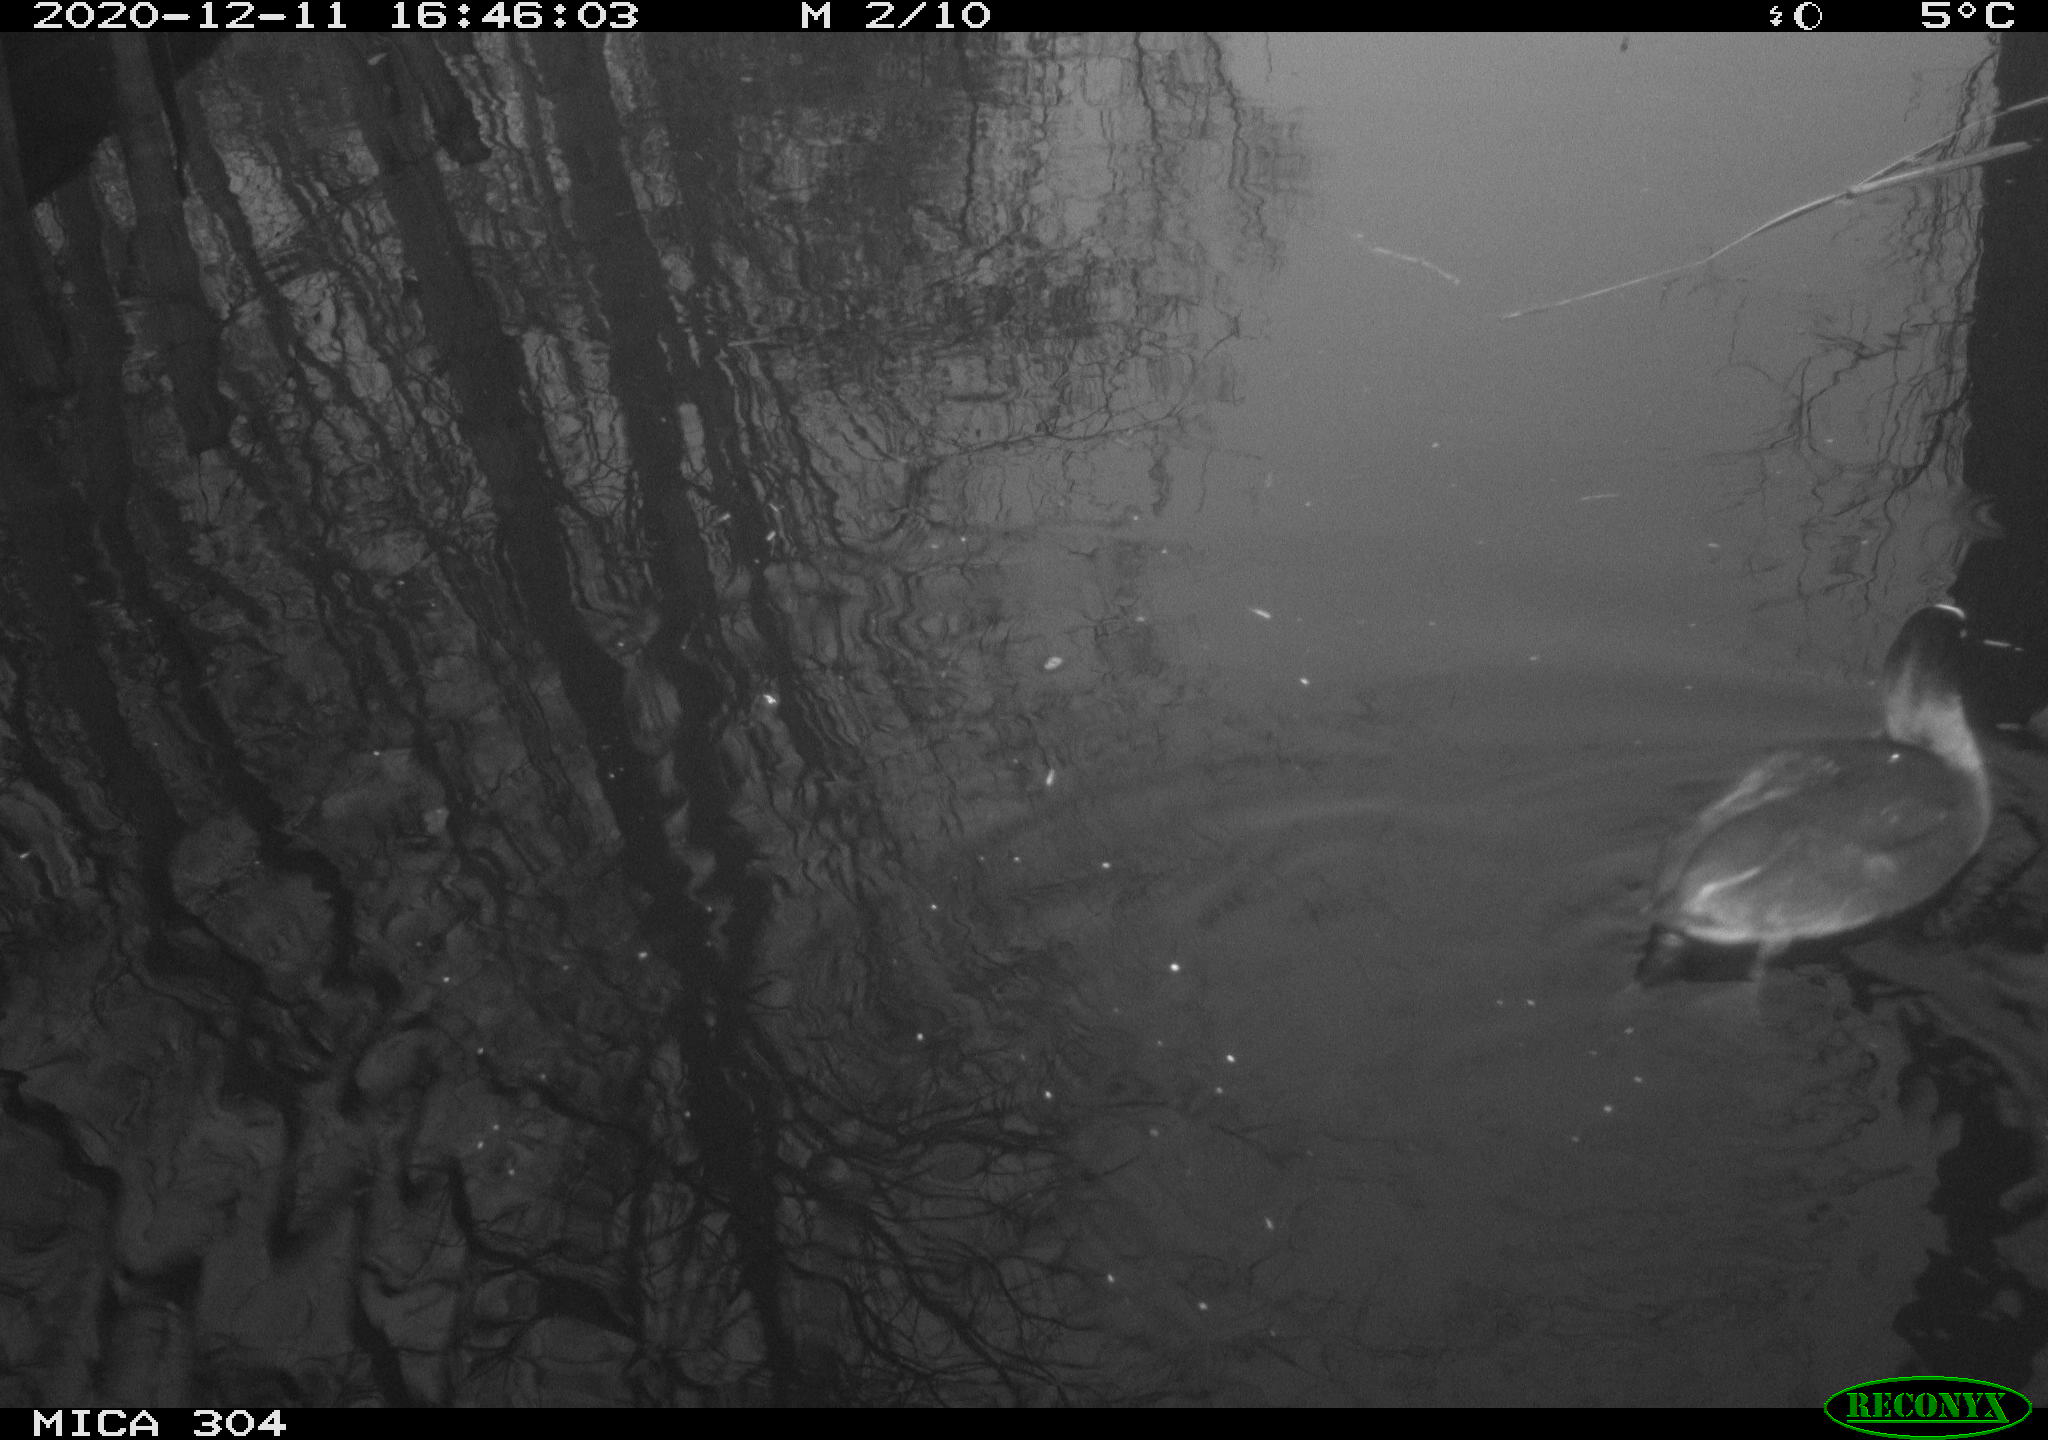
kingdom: Animalia
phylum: Chordata
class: Aves
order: Gruiformes
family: Rallidae
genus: Fulica
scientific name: Fulica atra
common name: Eurasian coot
